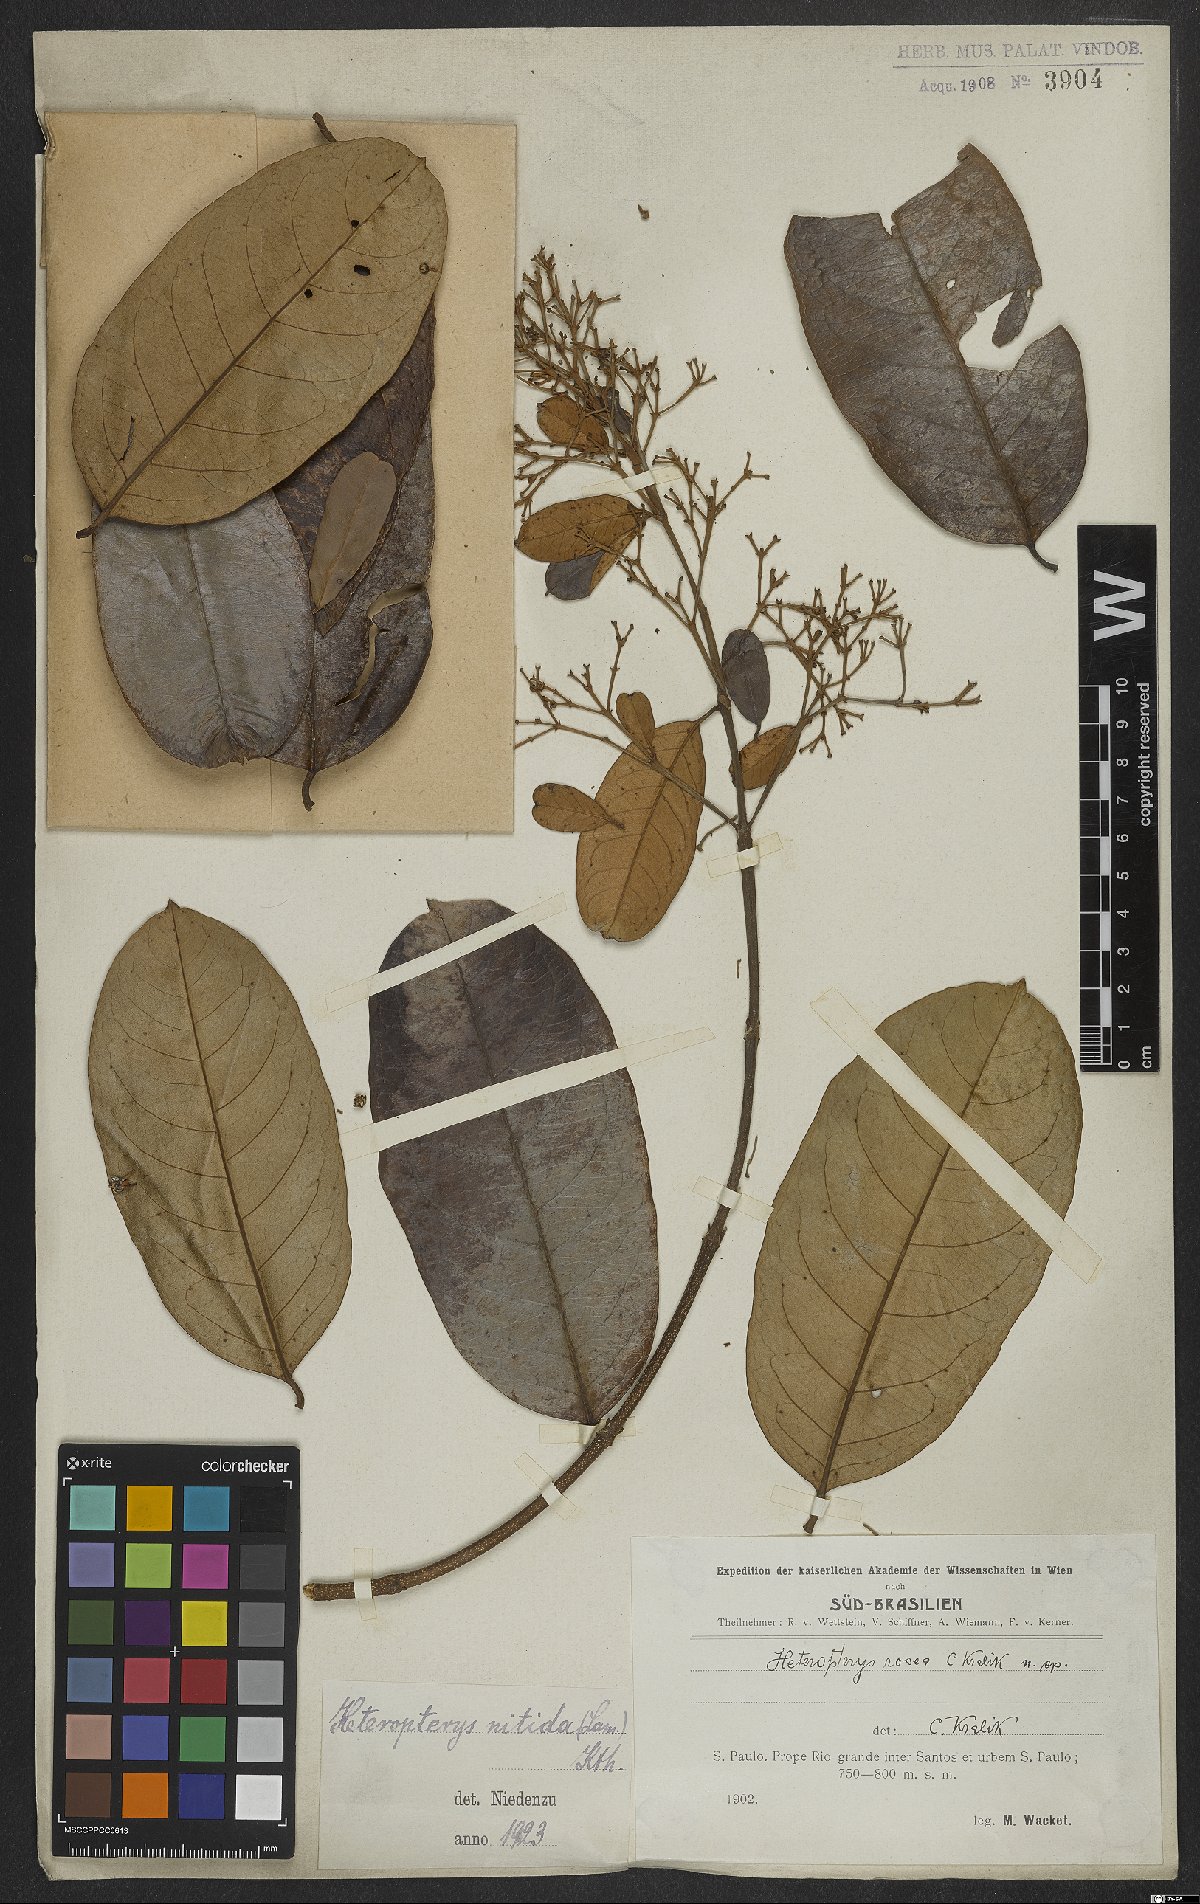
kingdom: Plantae
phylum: Tracheophyta
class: Magnoliopsida
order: Malpighiales
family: Malpighiaceae
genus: Heteropterys
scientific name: Heteropterys nitida
